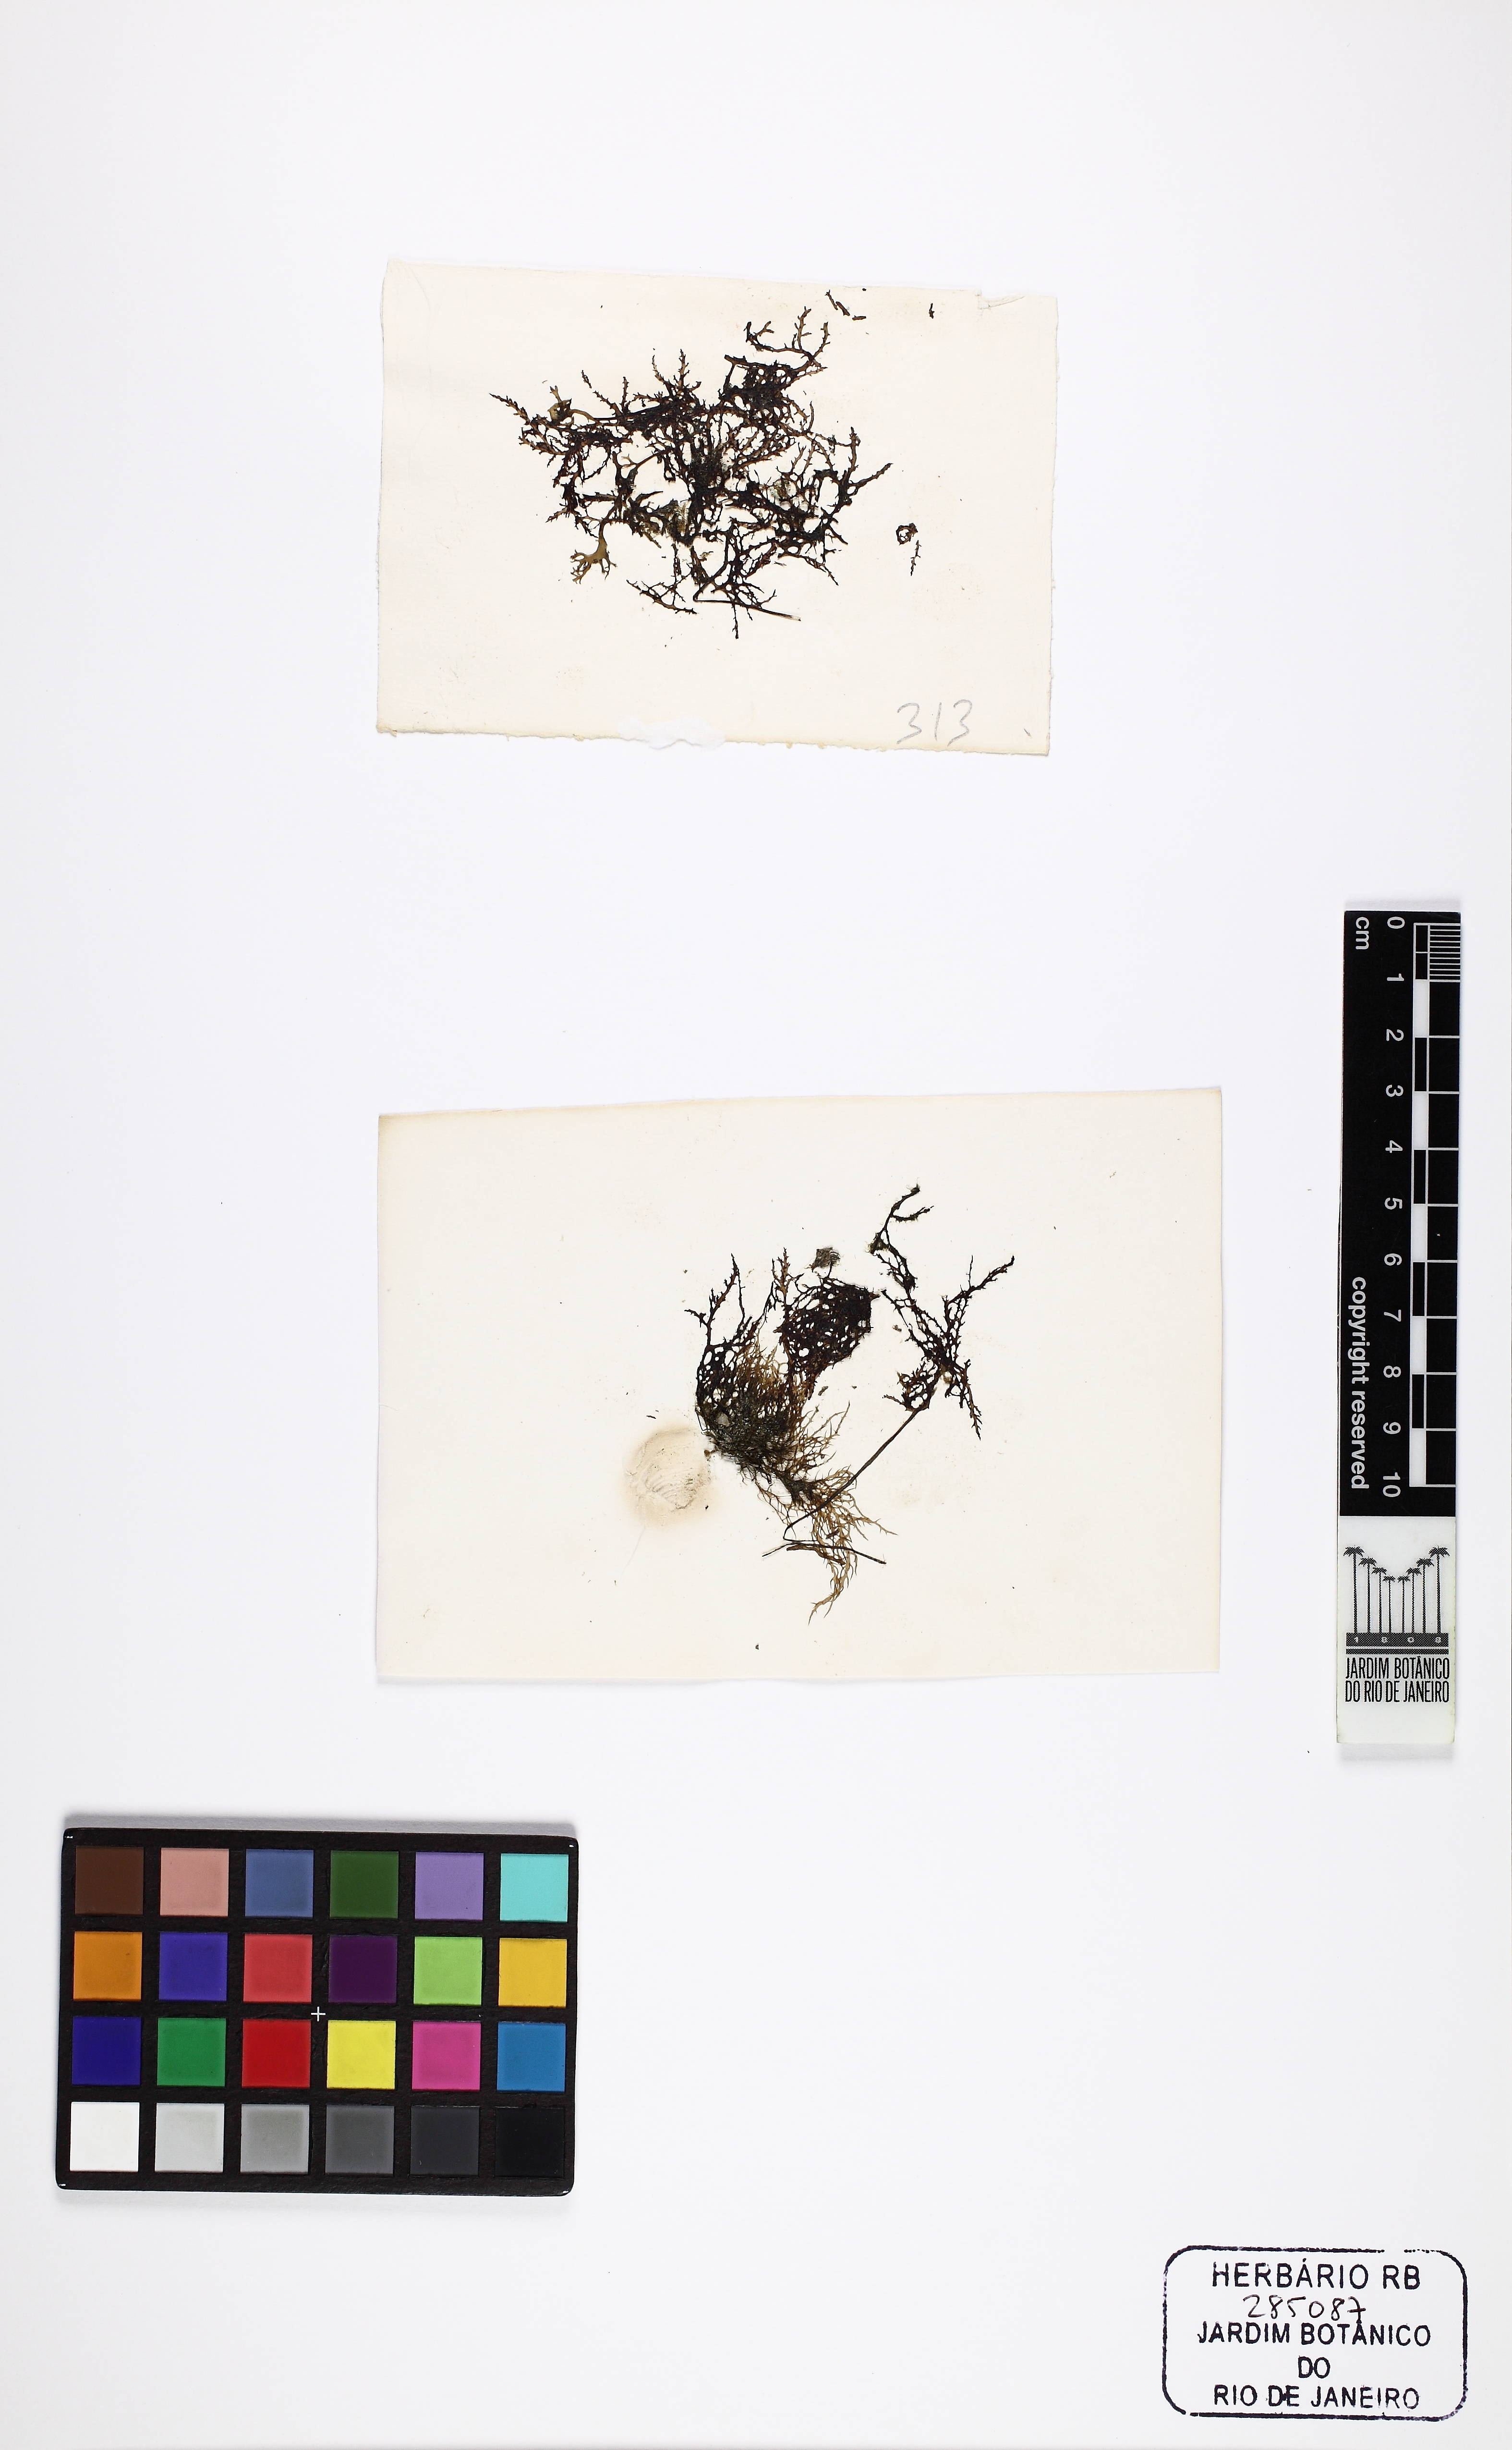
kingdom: Plantae
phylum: Rhodophyta
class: Florideophyceae
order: Ceramiales
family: Rhodomelaceae
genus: Acanthophora
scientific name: Acanthophora spicifera
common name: Red algae
